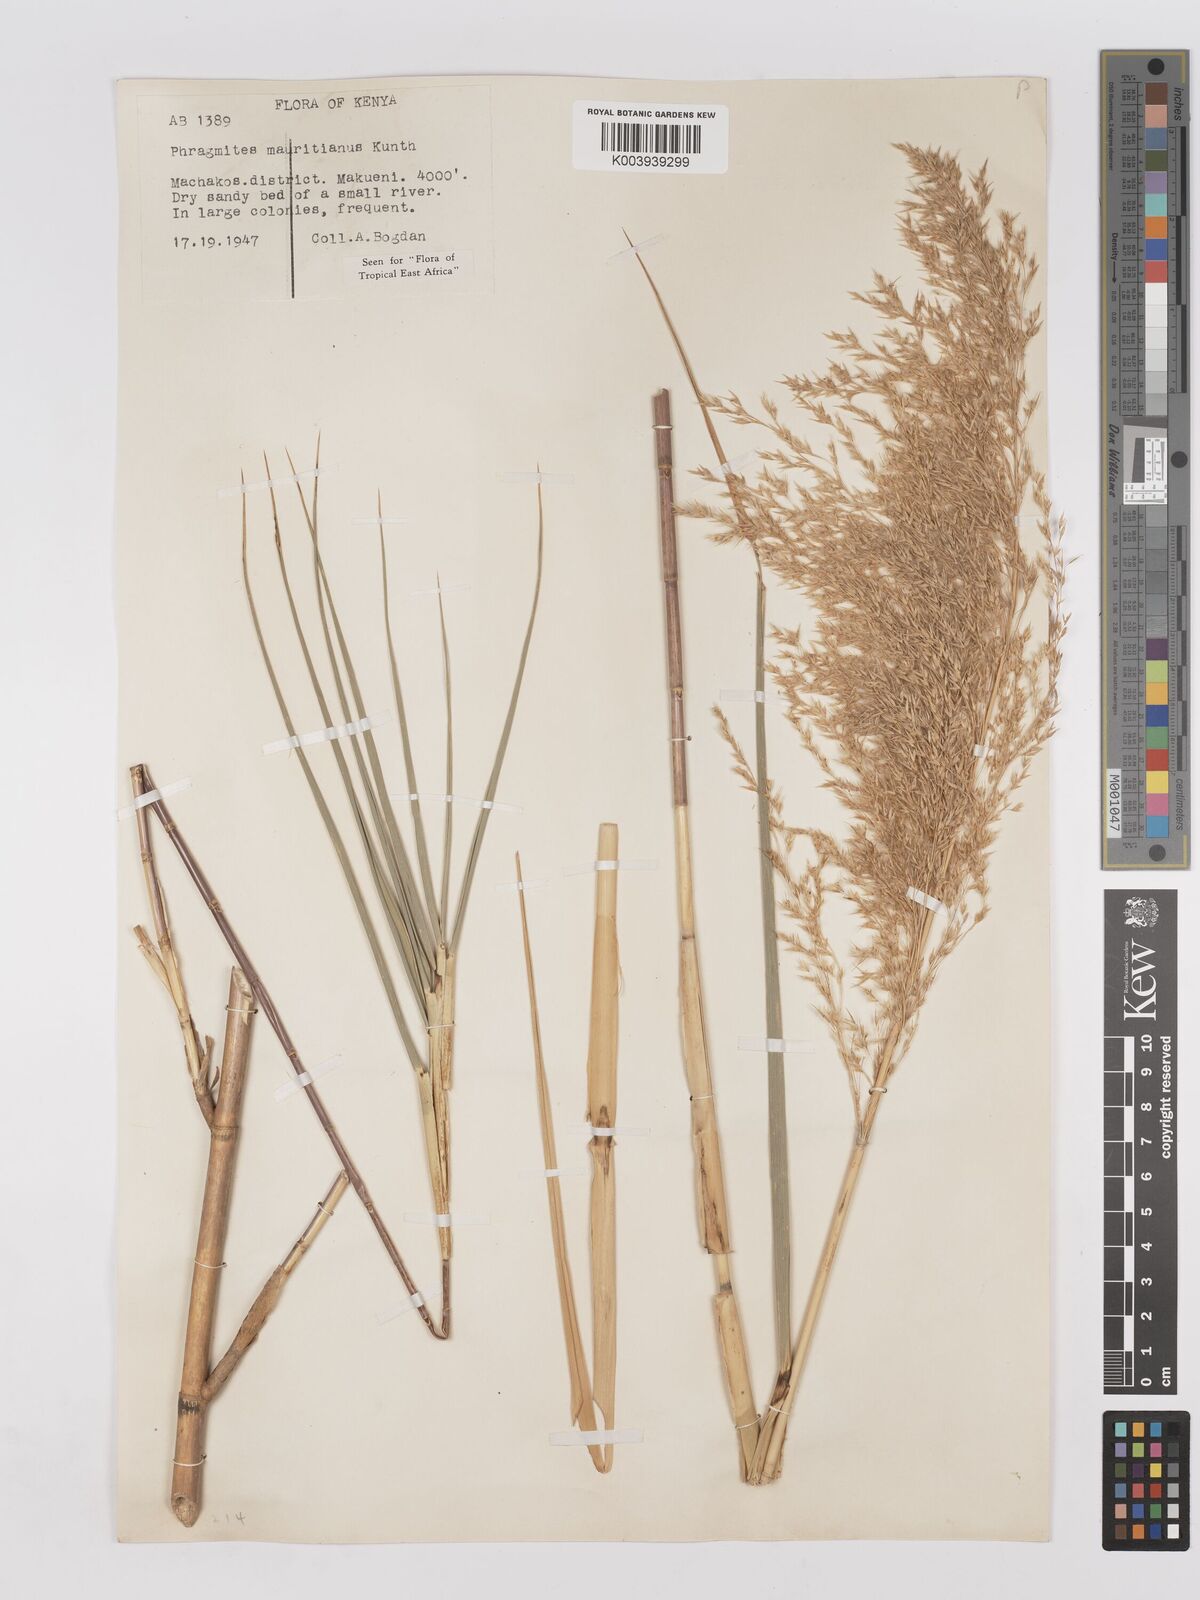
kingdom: Plantae
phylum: Tracheophyta
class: Liliopsida
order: Poales
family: Poaceae
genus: Phragmites
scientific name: Phragmites mauritianus
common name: Reed grass
